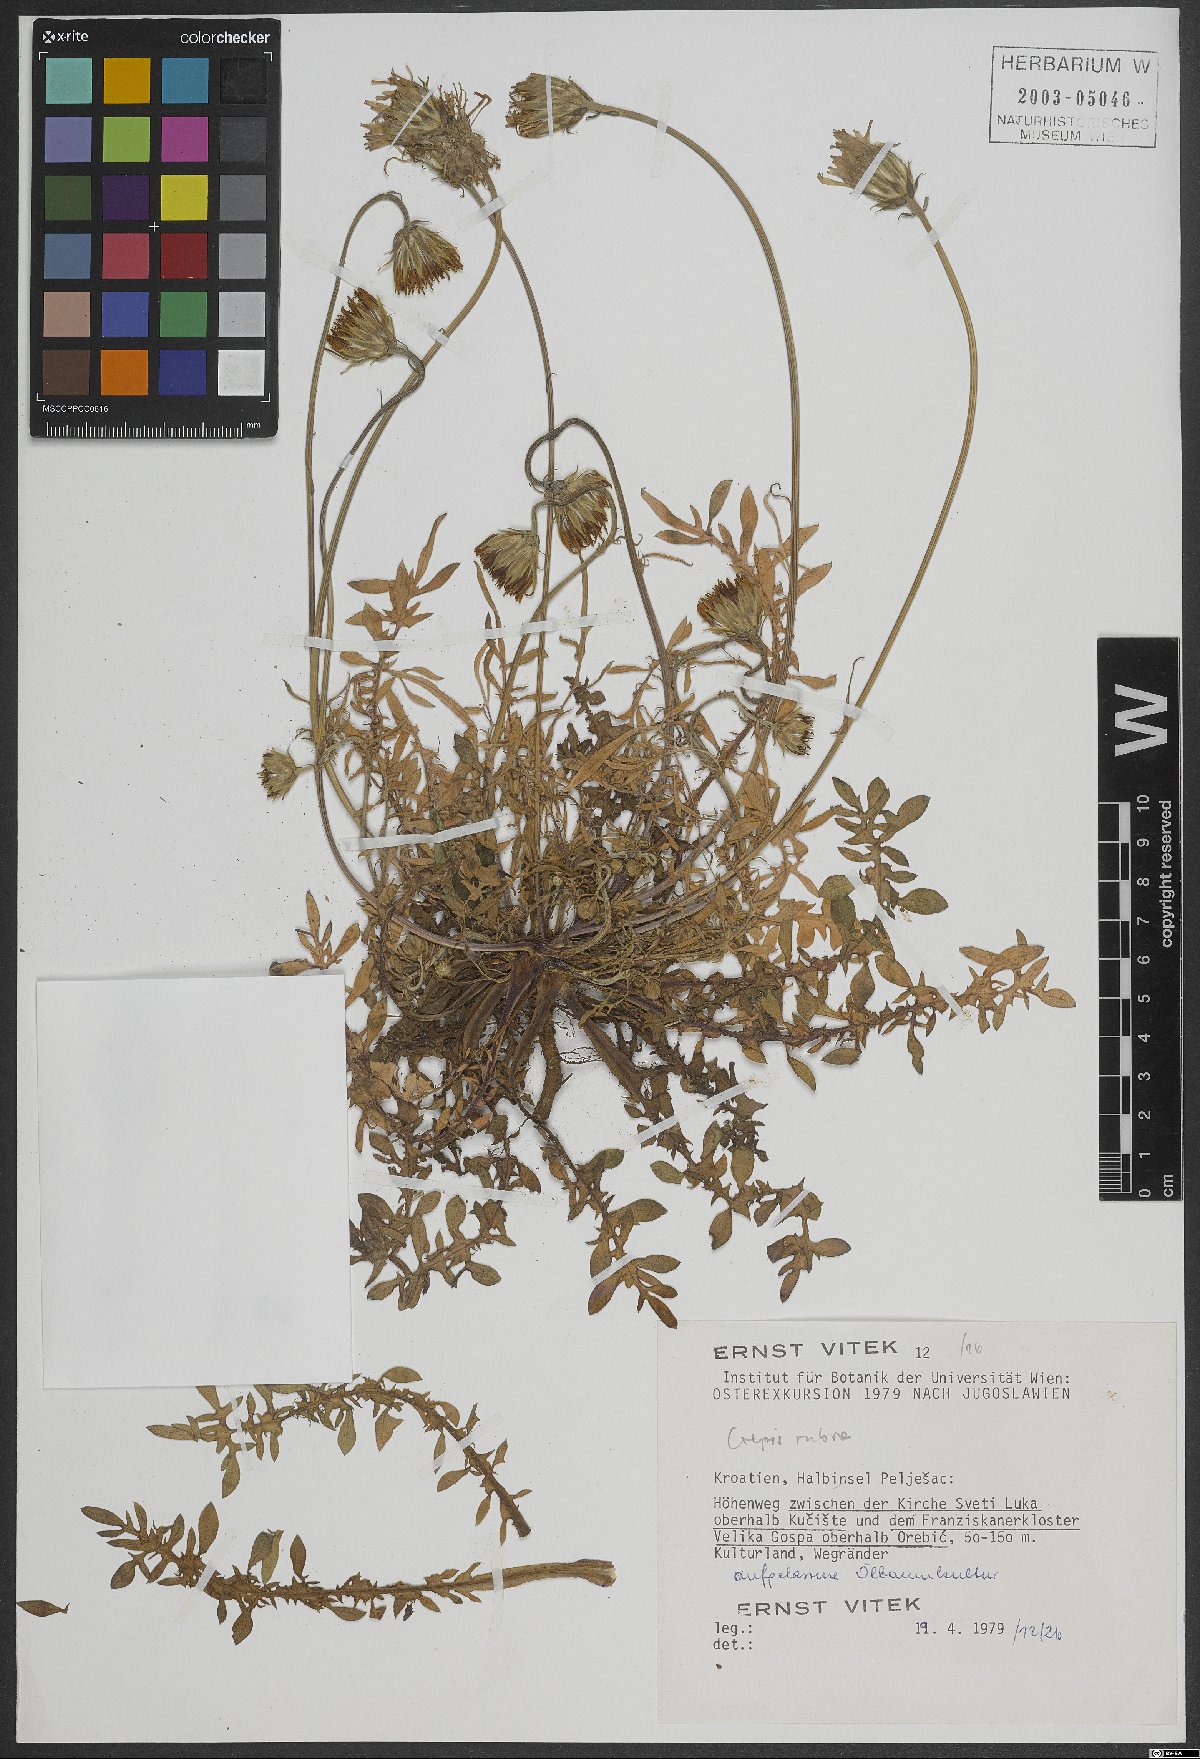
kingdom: Plantae
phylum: Tracheophyta
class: Magnoliopsida
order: Asterales
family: Asteraceae
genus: Crepis
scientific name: Crepis rubra
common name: Pink hawk's-beard
